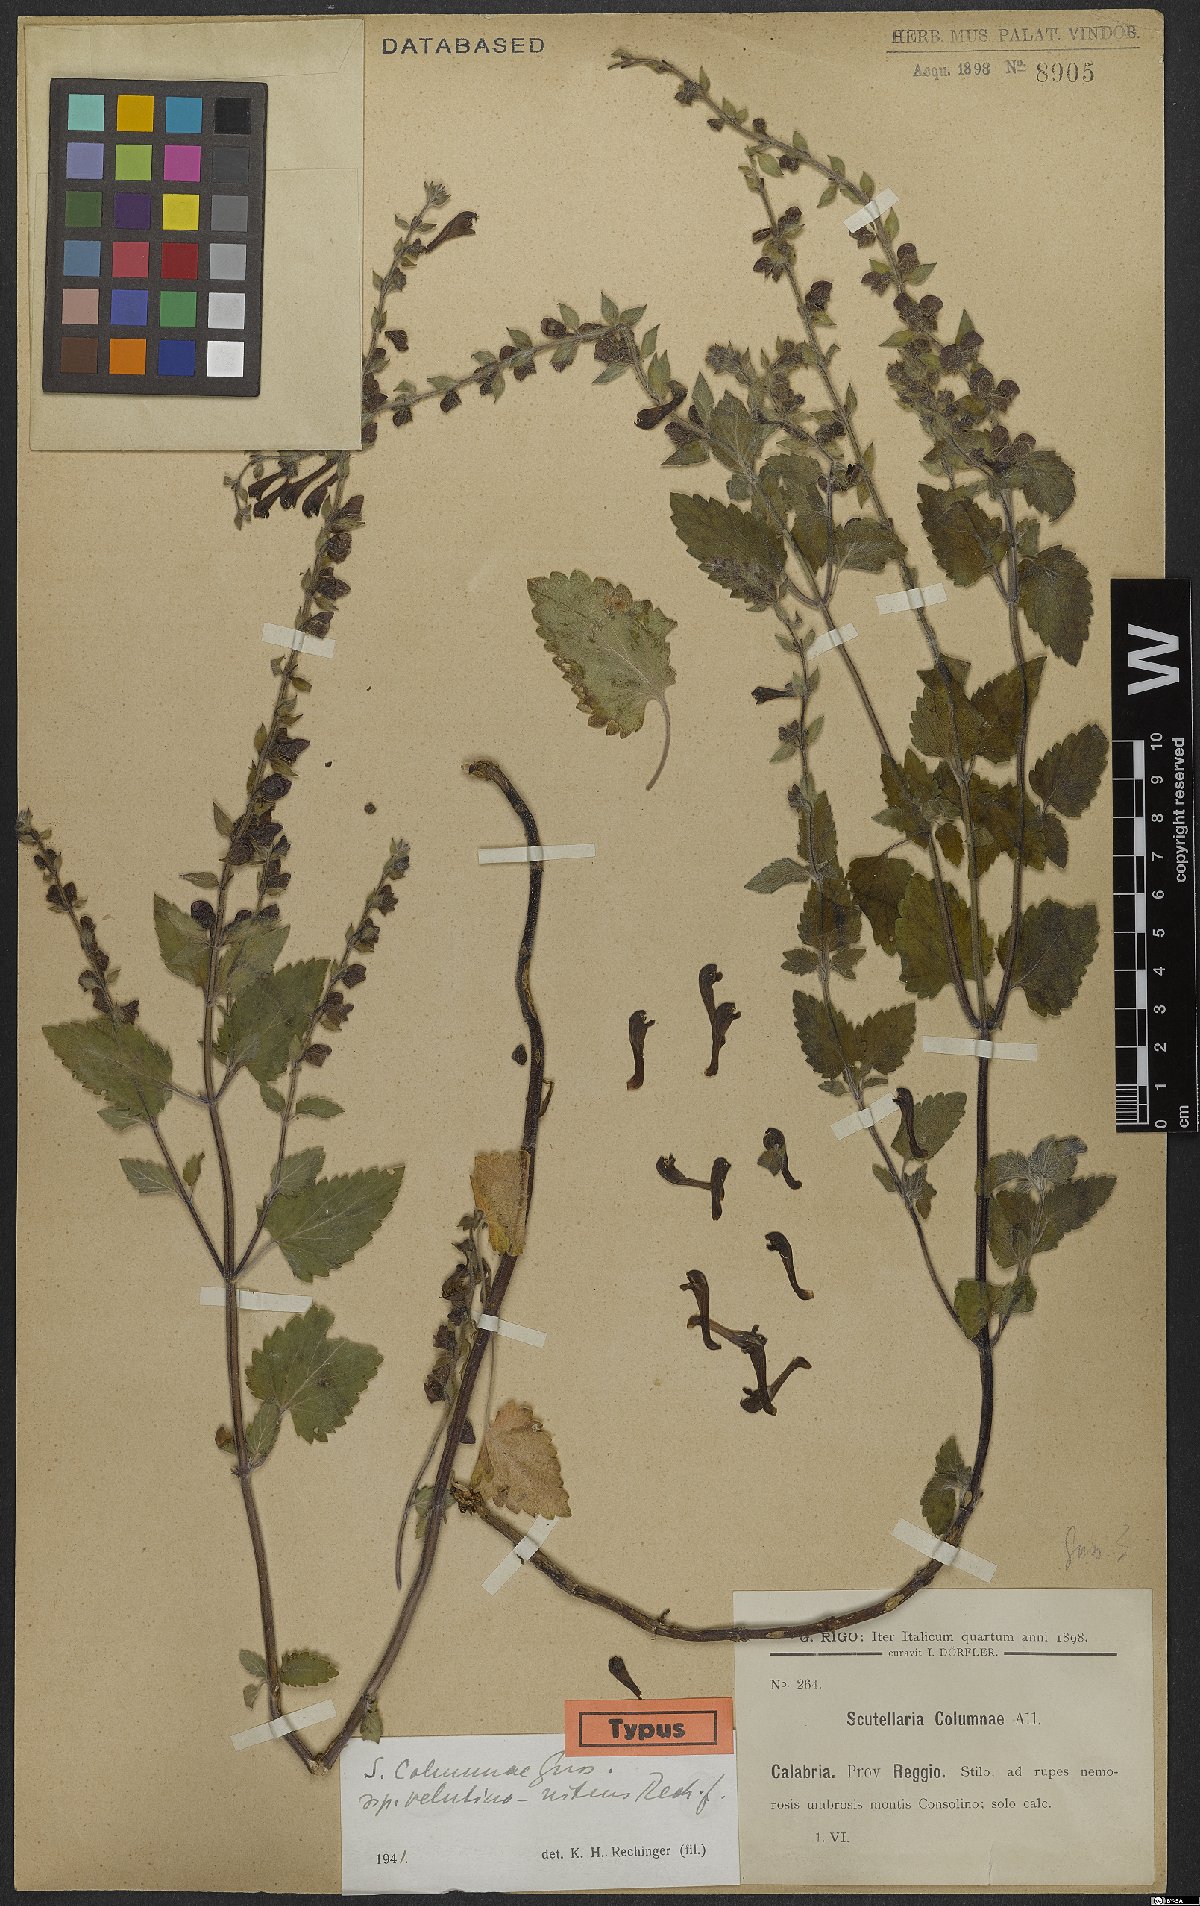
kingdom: Plantae
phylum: Tracheophyta
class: Magnoliopsida
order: Lamiales
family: Lamiaceae
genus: Scutellaria
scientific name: Scutellaria columnae
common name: Large skullcap
